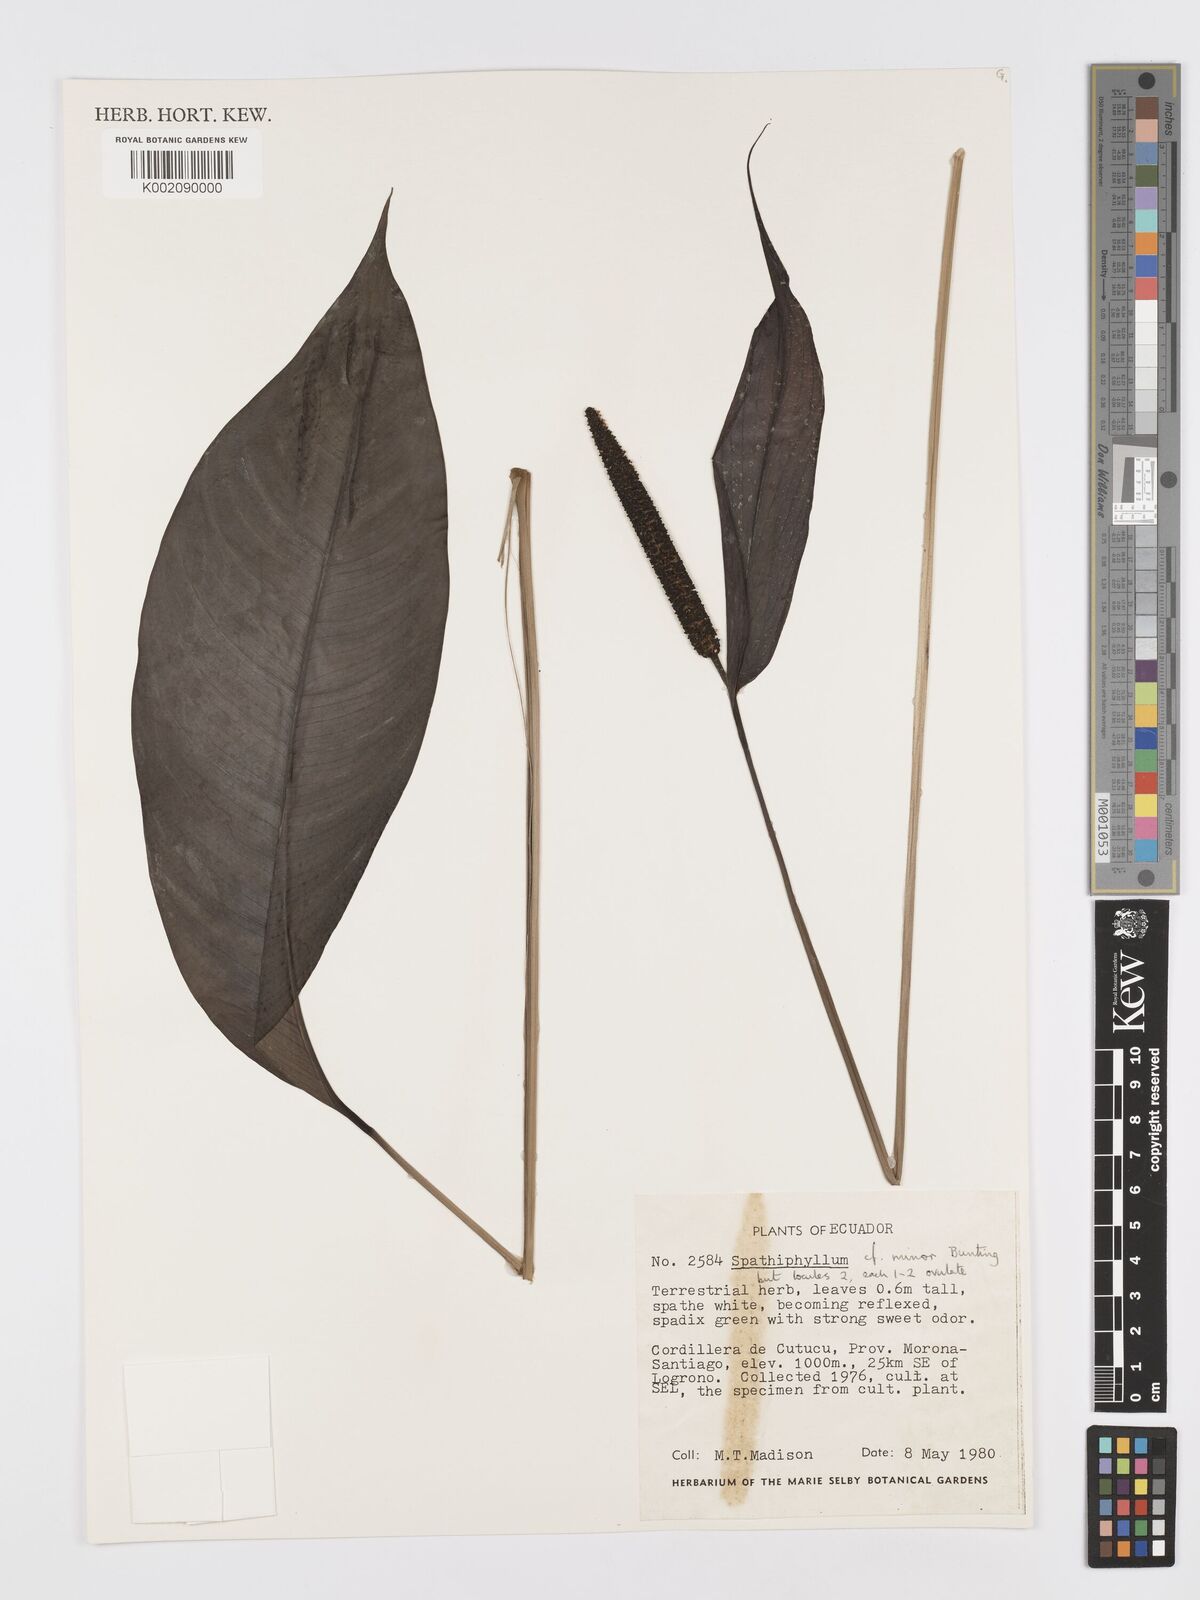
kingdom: Plantae
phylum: Tracheophyta
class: Liliopsida
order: Alismatales
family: Araceae
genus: Spathiphyllum
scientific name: Spathiphyllum minus
